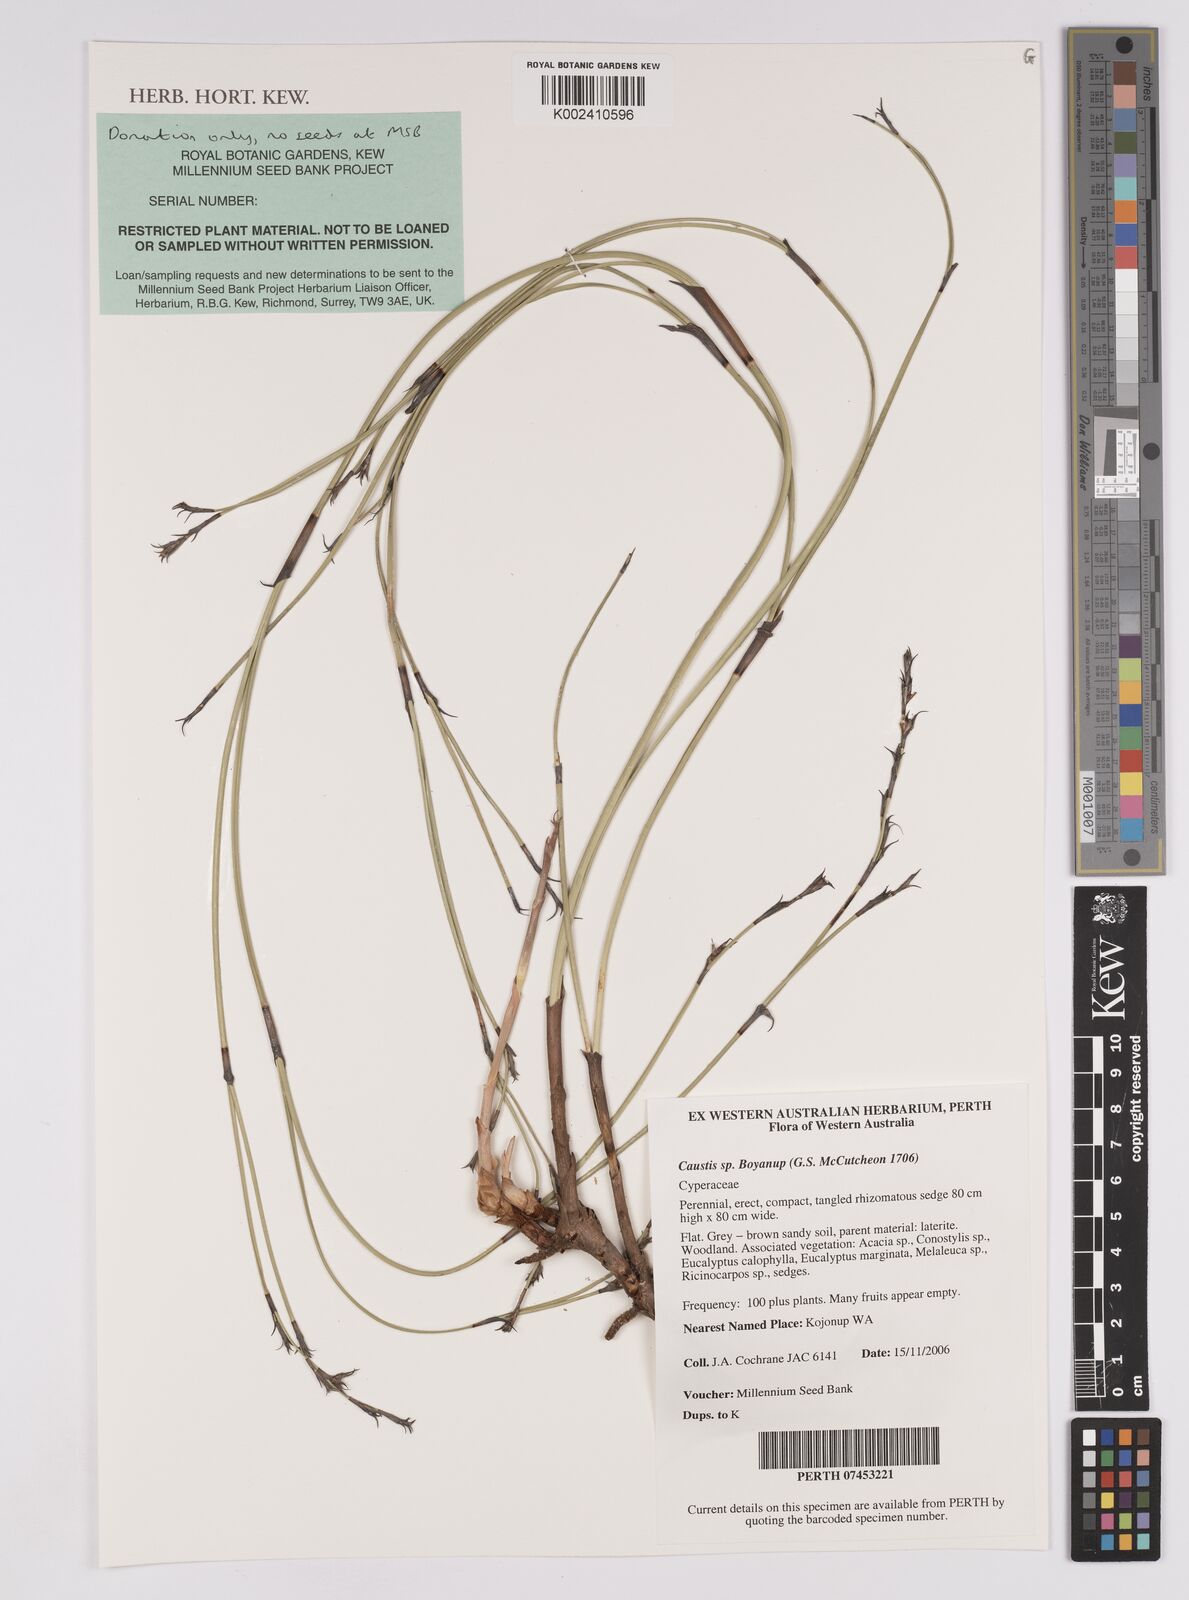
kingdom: Plantae
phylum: Tracheophyta
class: Liliopsida
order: Poales
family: Cyperaceae
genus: Caustis
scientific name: Caustis
